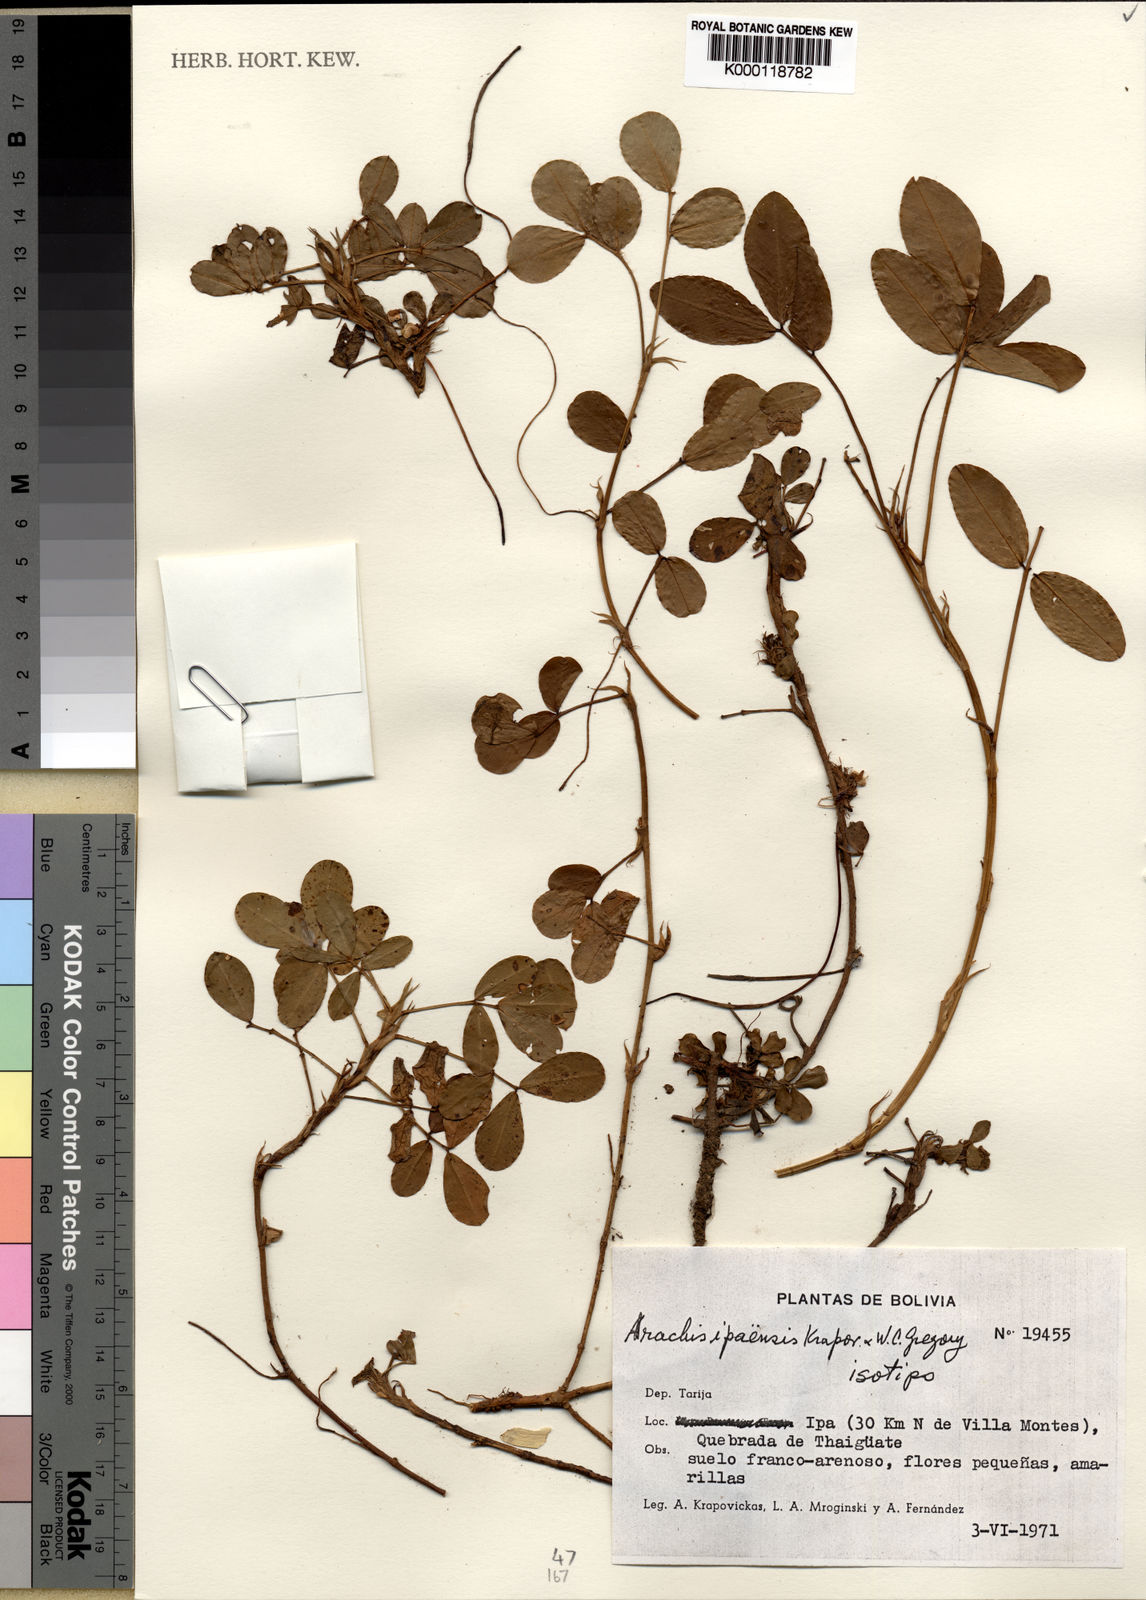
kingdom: Plantae
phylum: Tracheophyta
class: Magnoliopsida
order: Fabales
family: Fabaceae
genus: Arachis
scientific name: Arachis ipaensis
